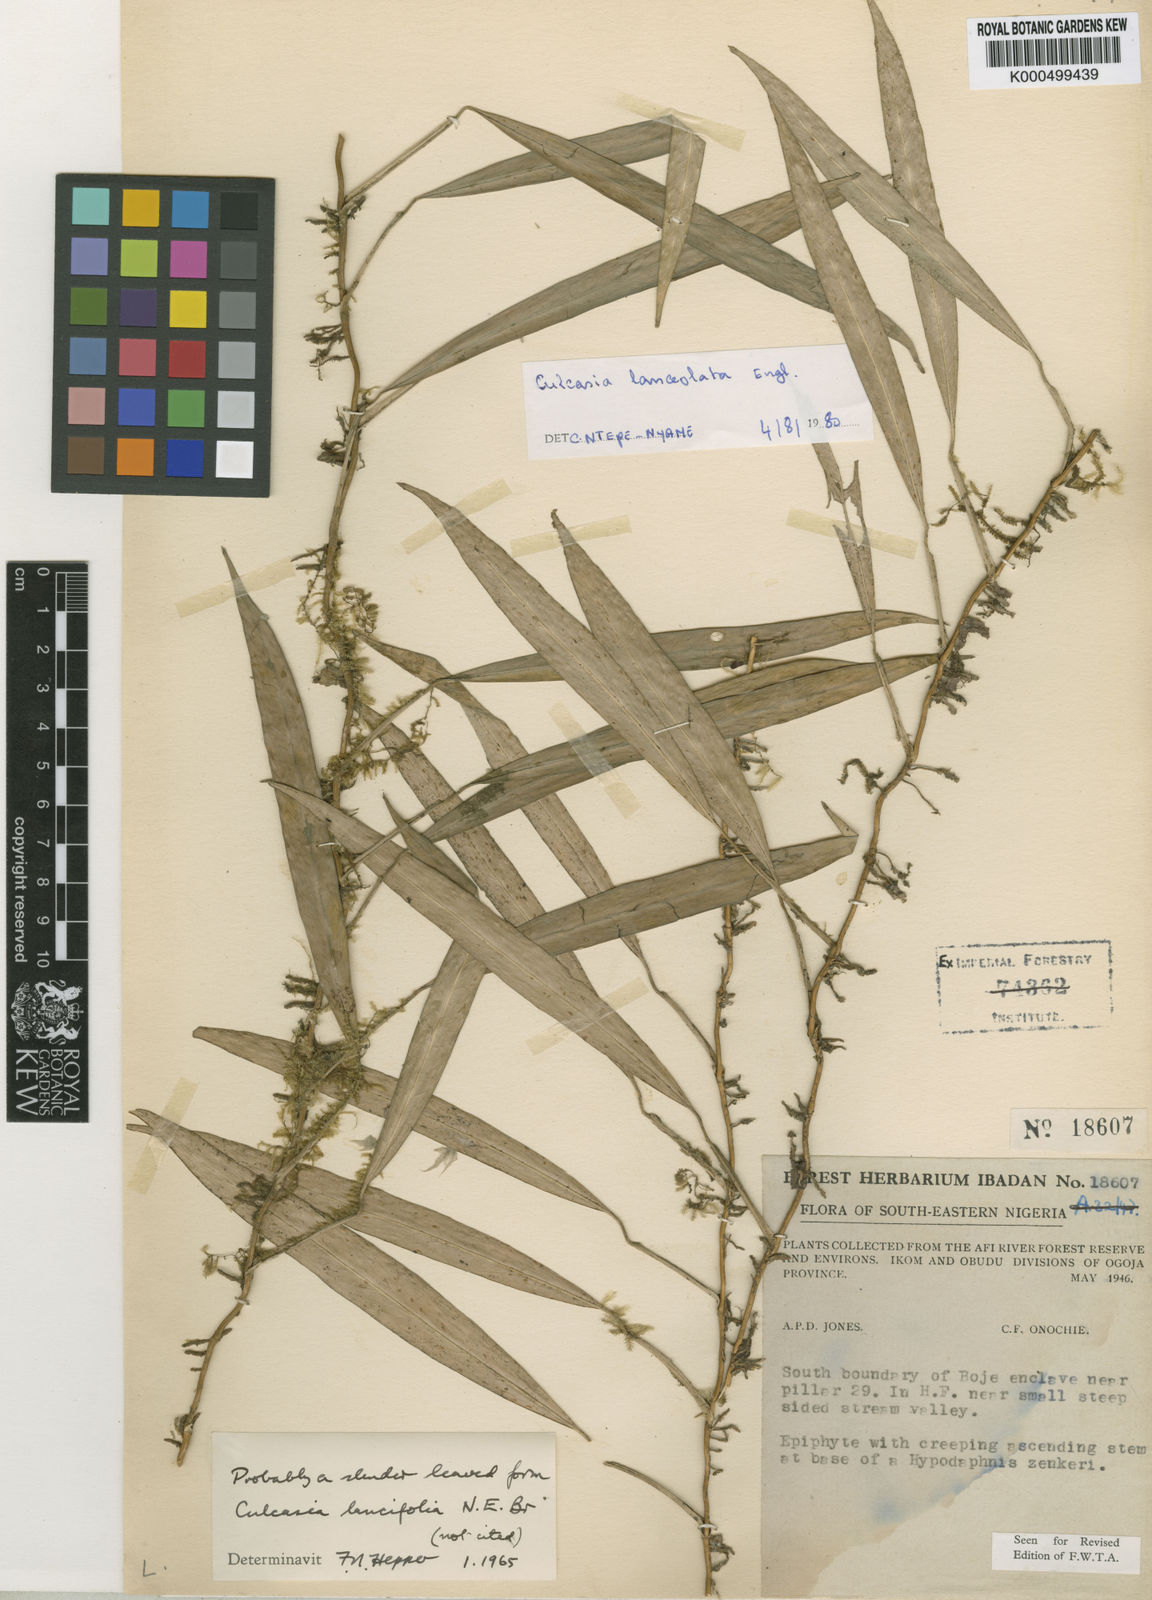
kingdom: Plantae
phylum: Tracheophyta
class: Liliopsida
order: Alismatales
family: Araceae
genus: Culcasia
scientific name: Culcasia
